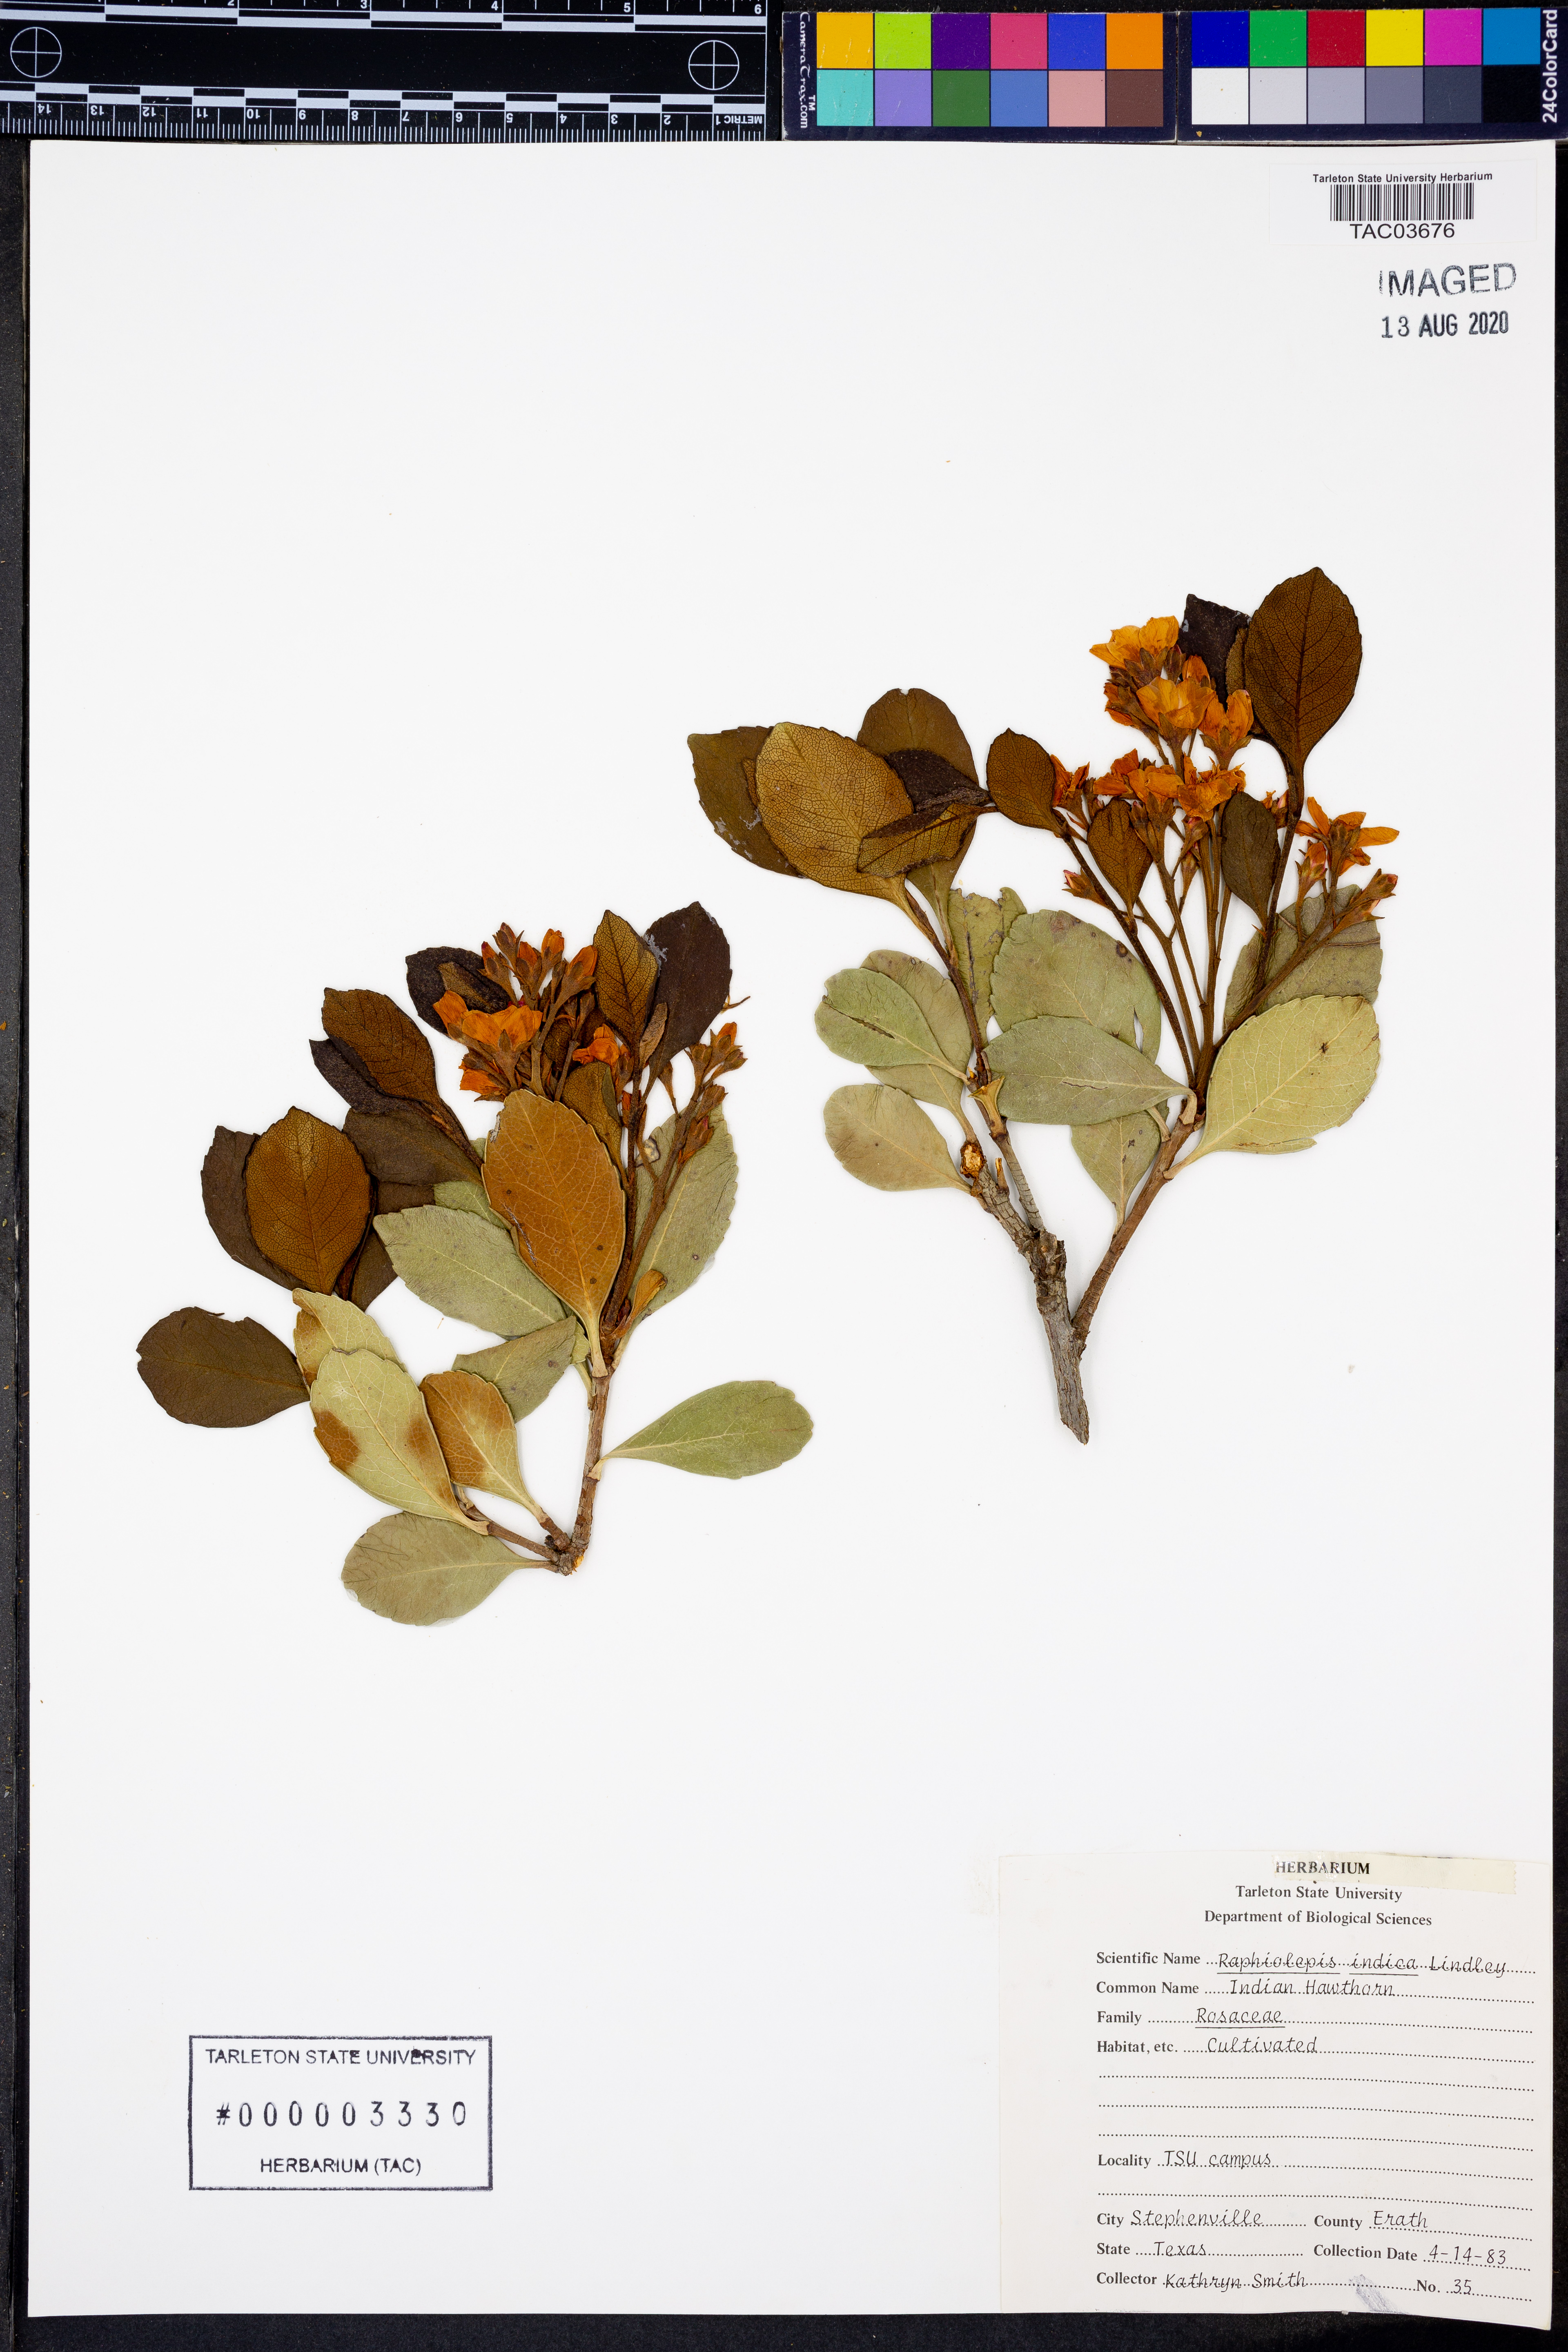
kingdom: Plantae
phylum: Tracheophyta
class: Magnoliopsida
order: Rosales
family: Rosaceae
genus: Rhaphiolepis
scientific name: Rhaphiolepis indica
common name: India-hawthorn
